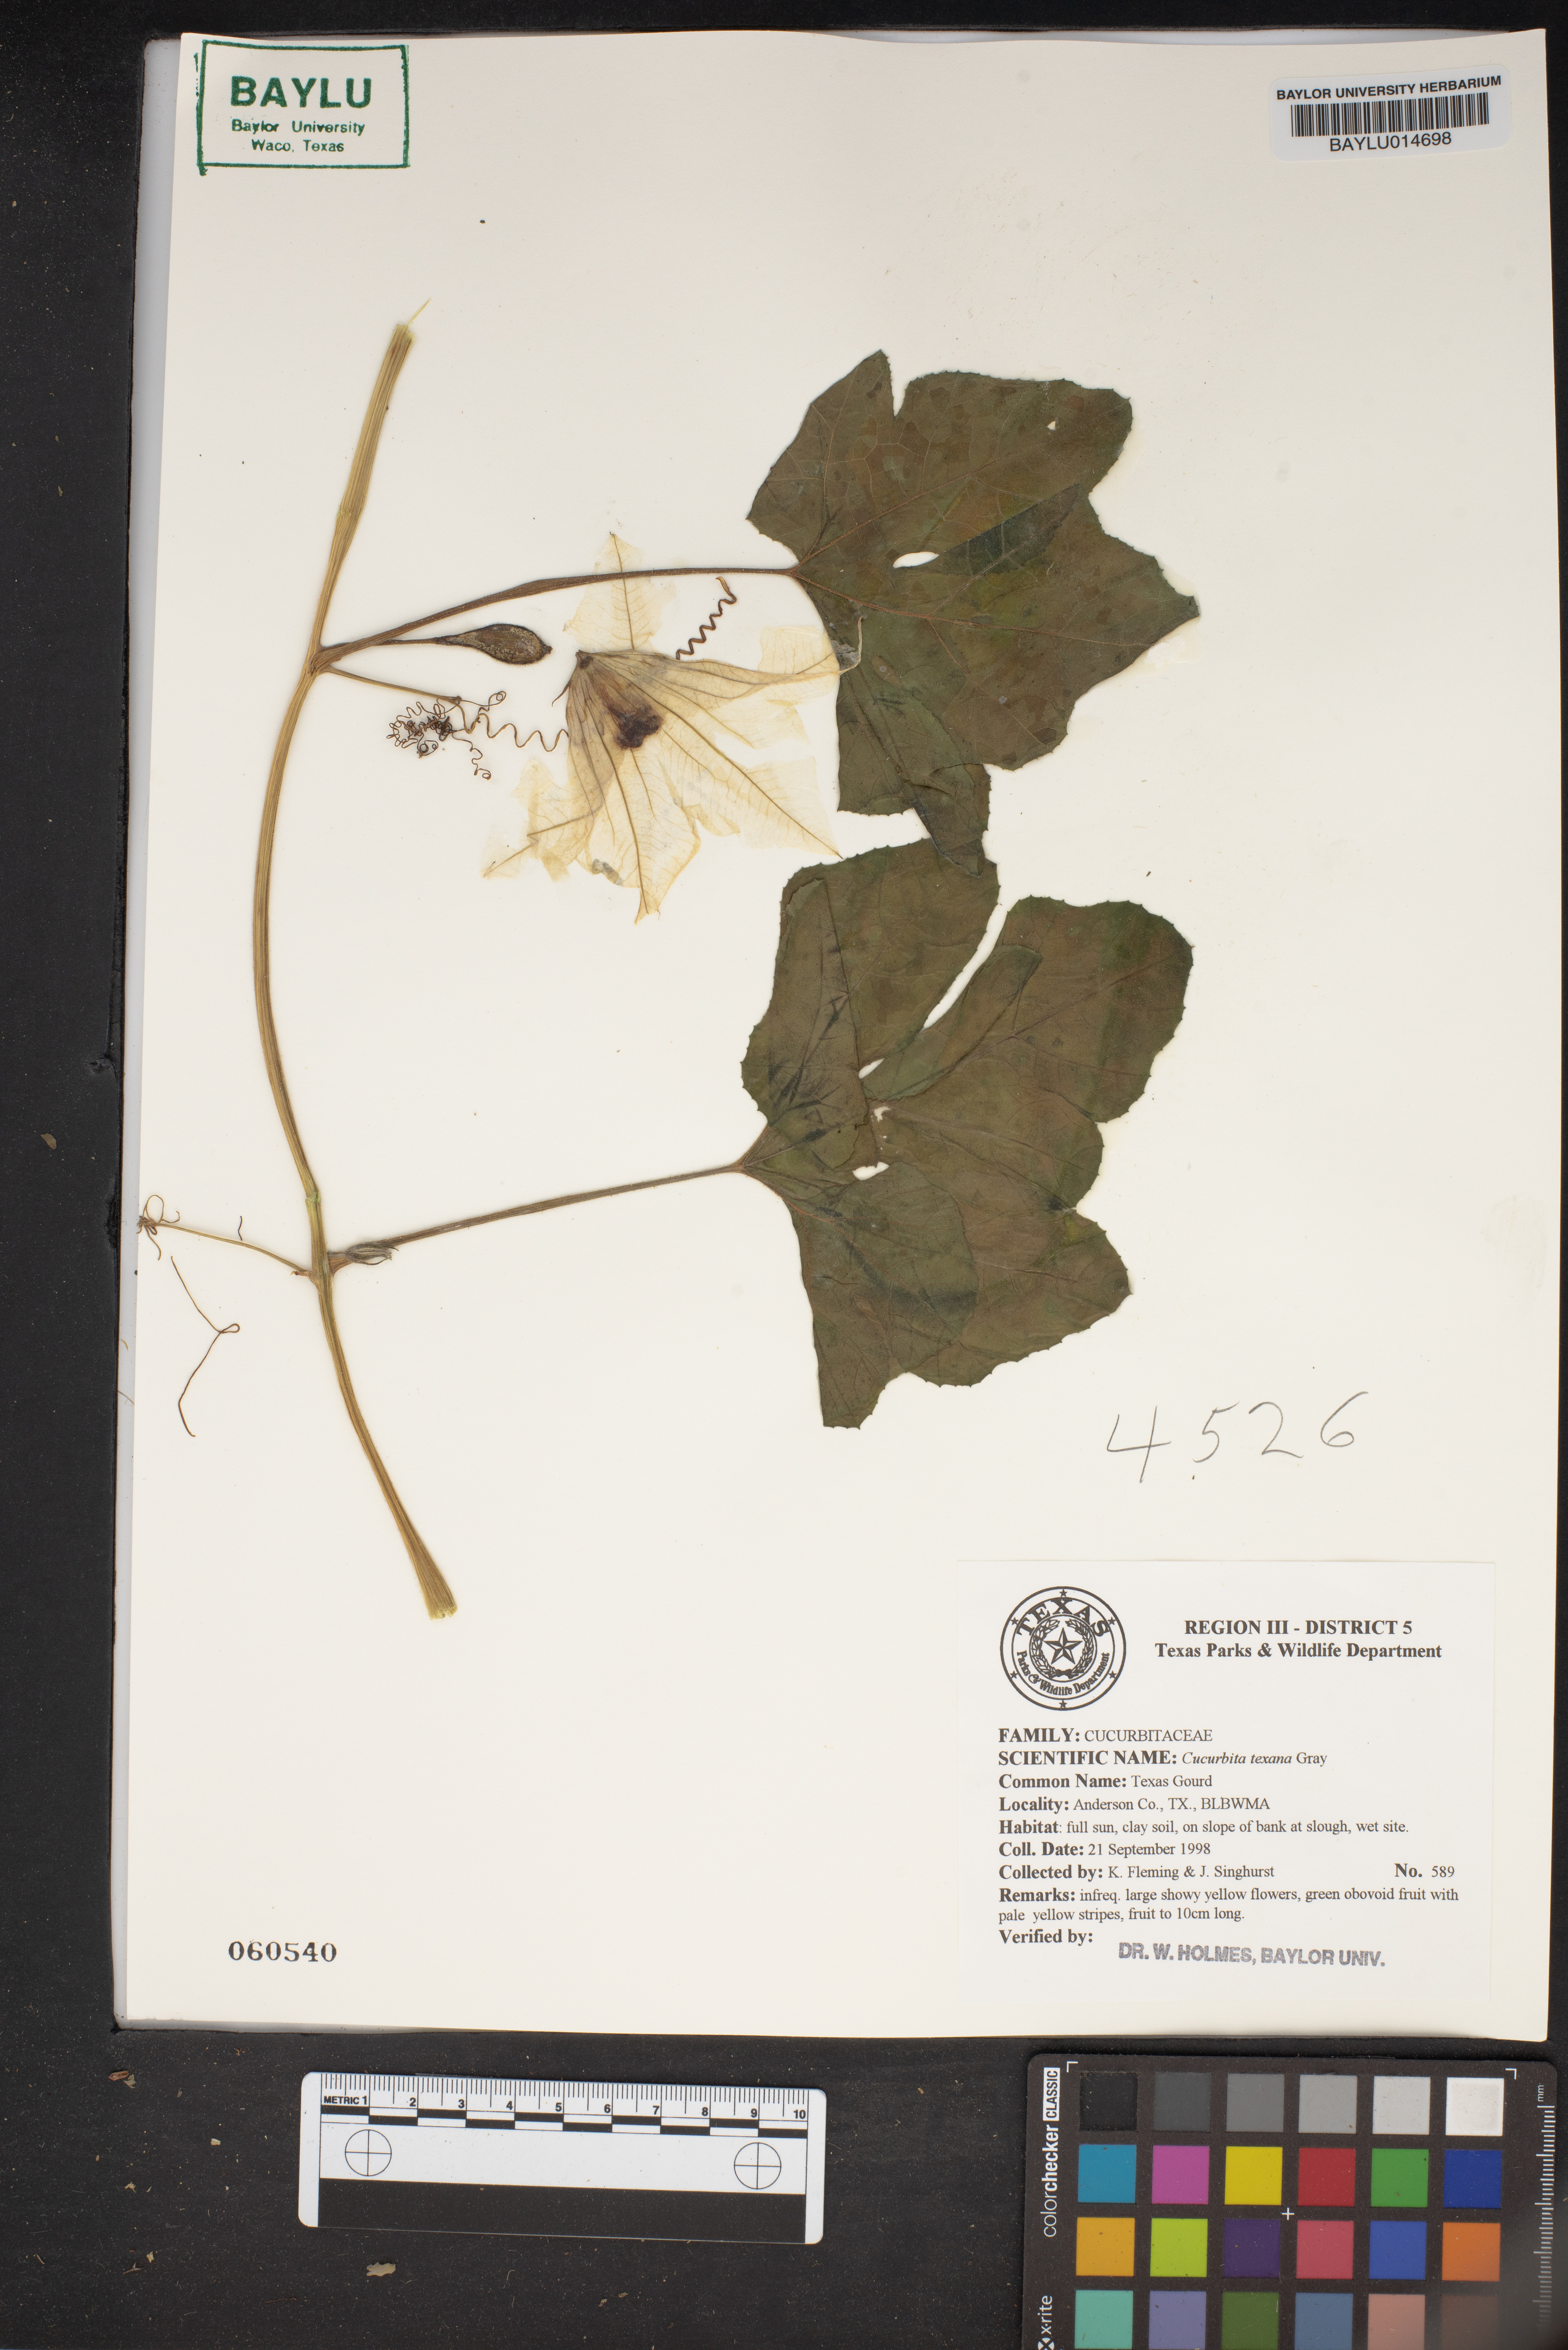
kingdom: Plantae
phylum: Tracheophyta
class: Magnoliopsida
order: Cucurbitales
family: Cucurbitaceae
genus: Cucurbita
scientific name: Cucurbita melopepo
